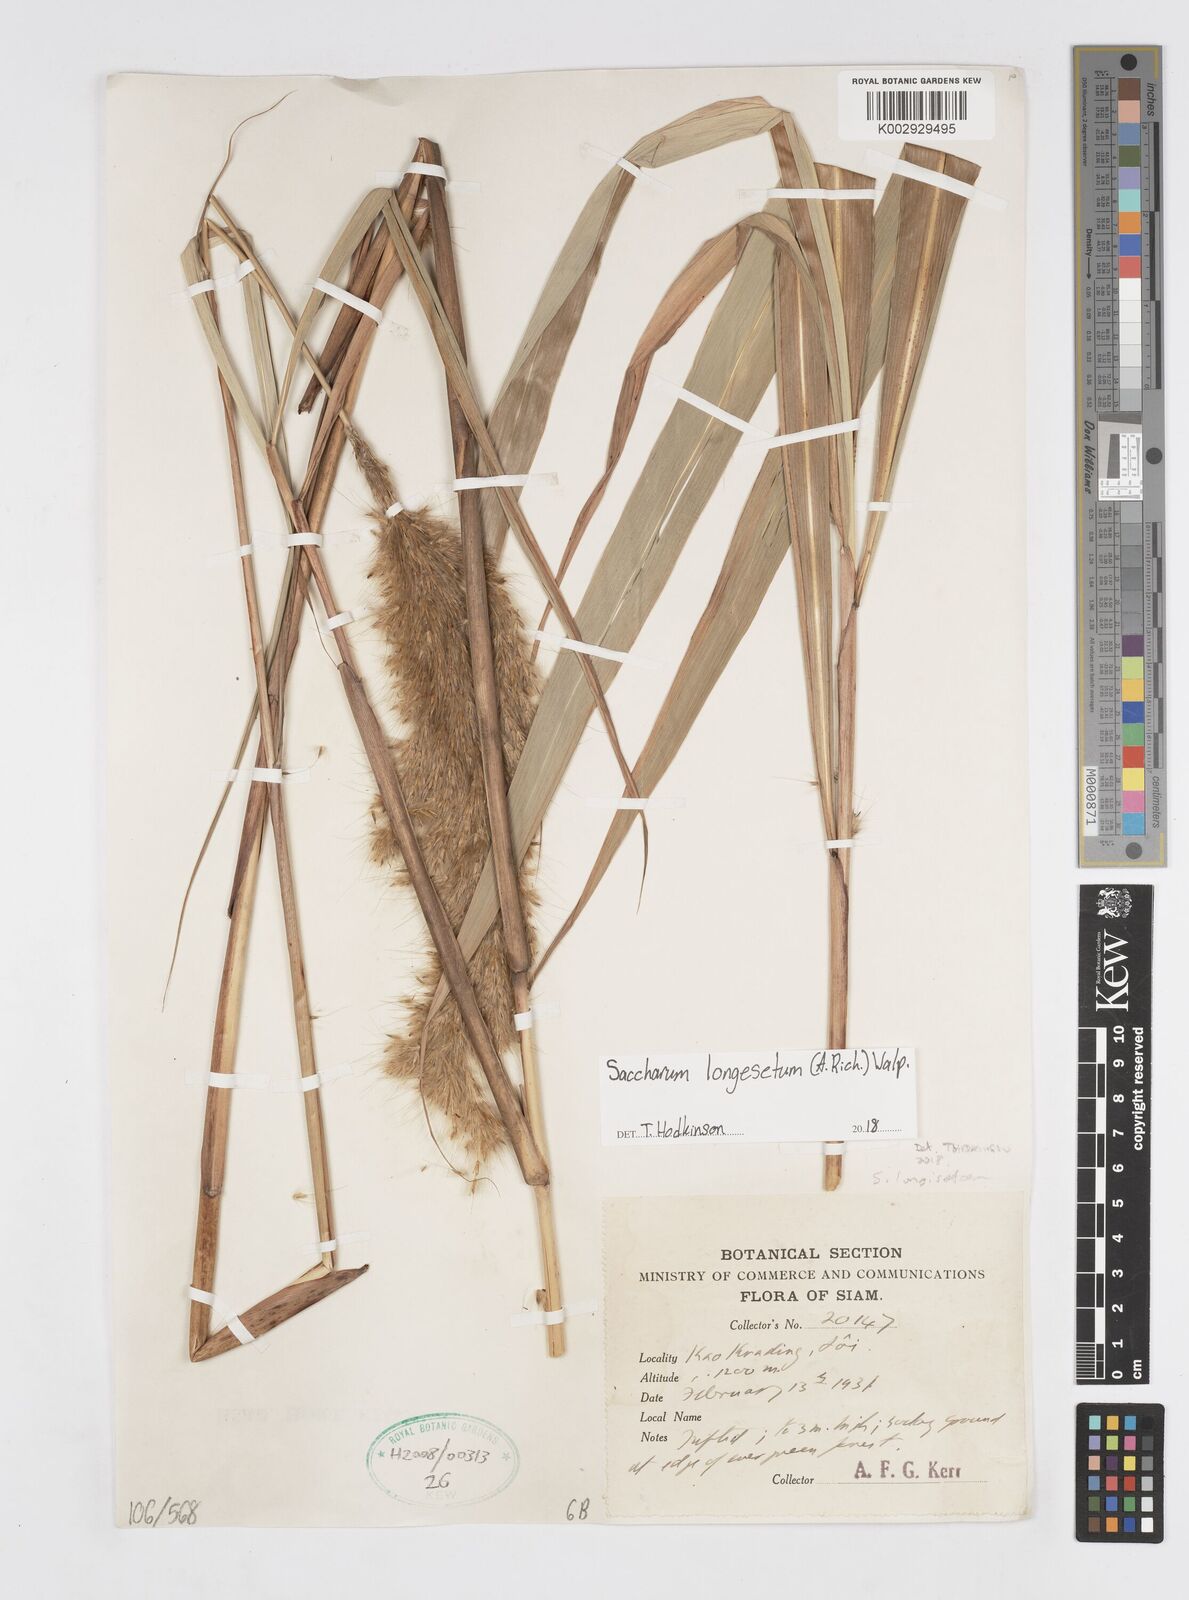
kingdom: Plantae
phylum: Tracheophyta
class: Liliopsida
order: Poales
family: Poaceae
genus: Melinis
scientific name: Melinis longiseta
